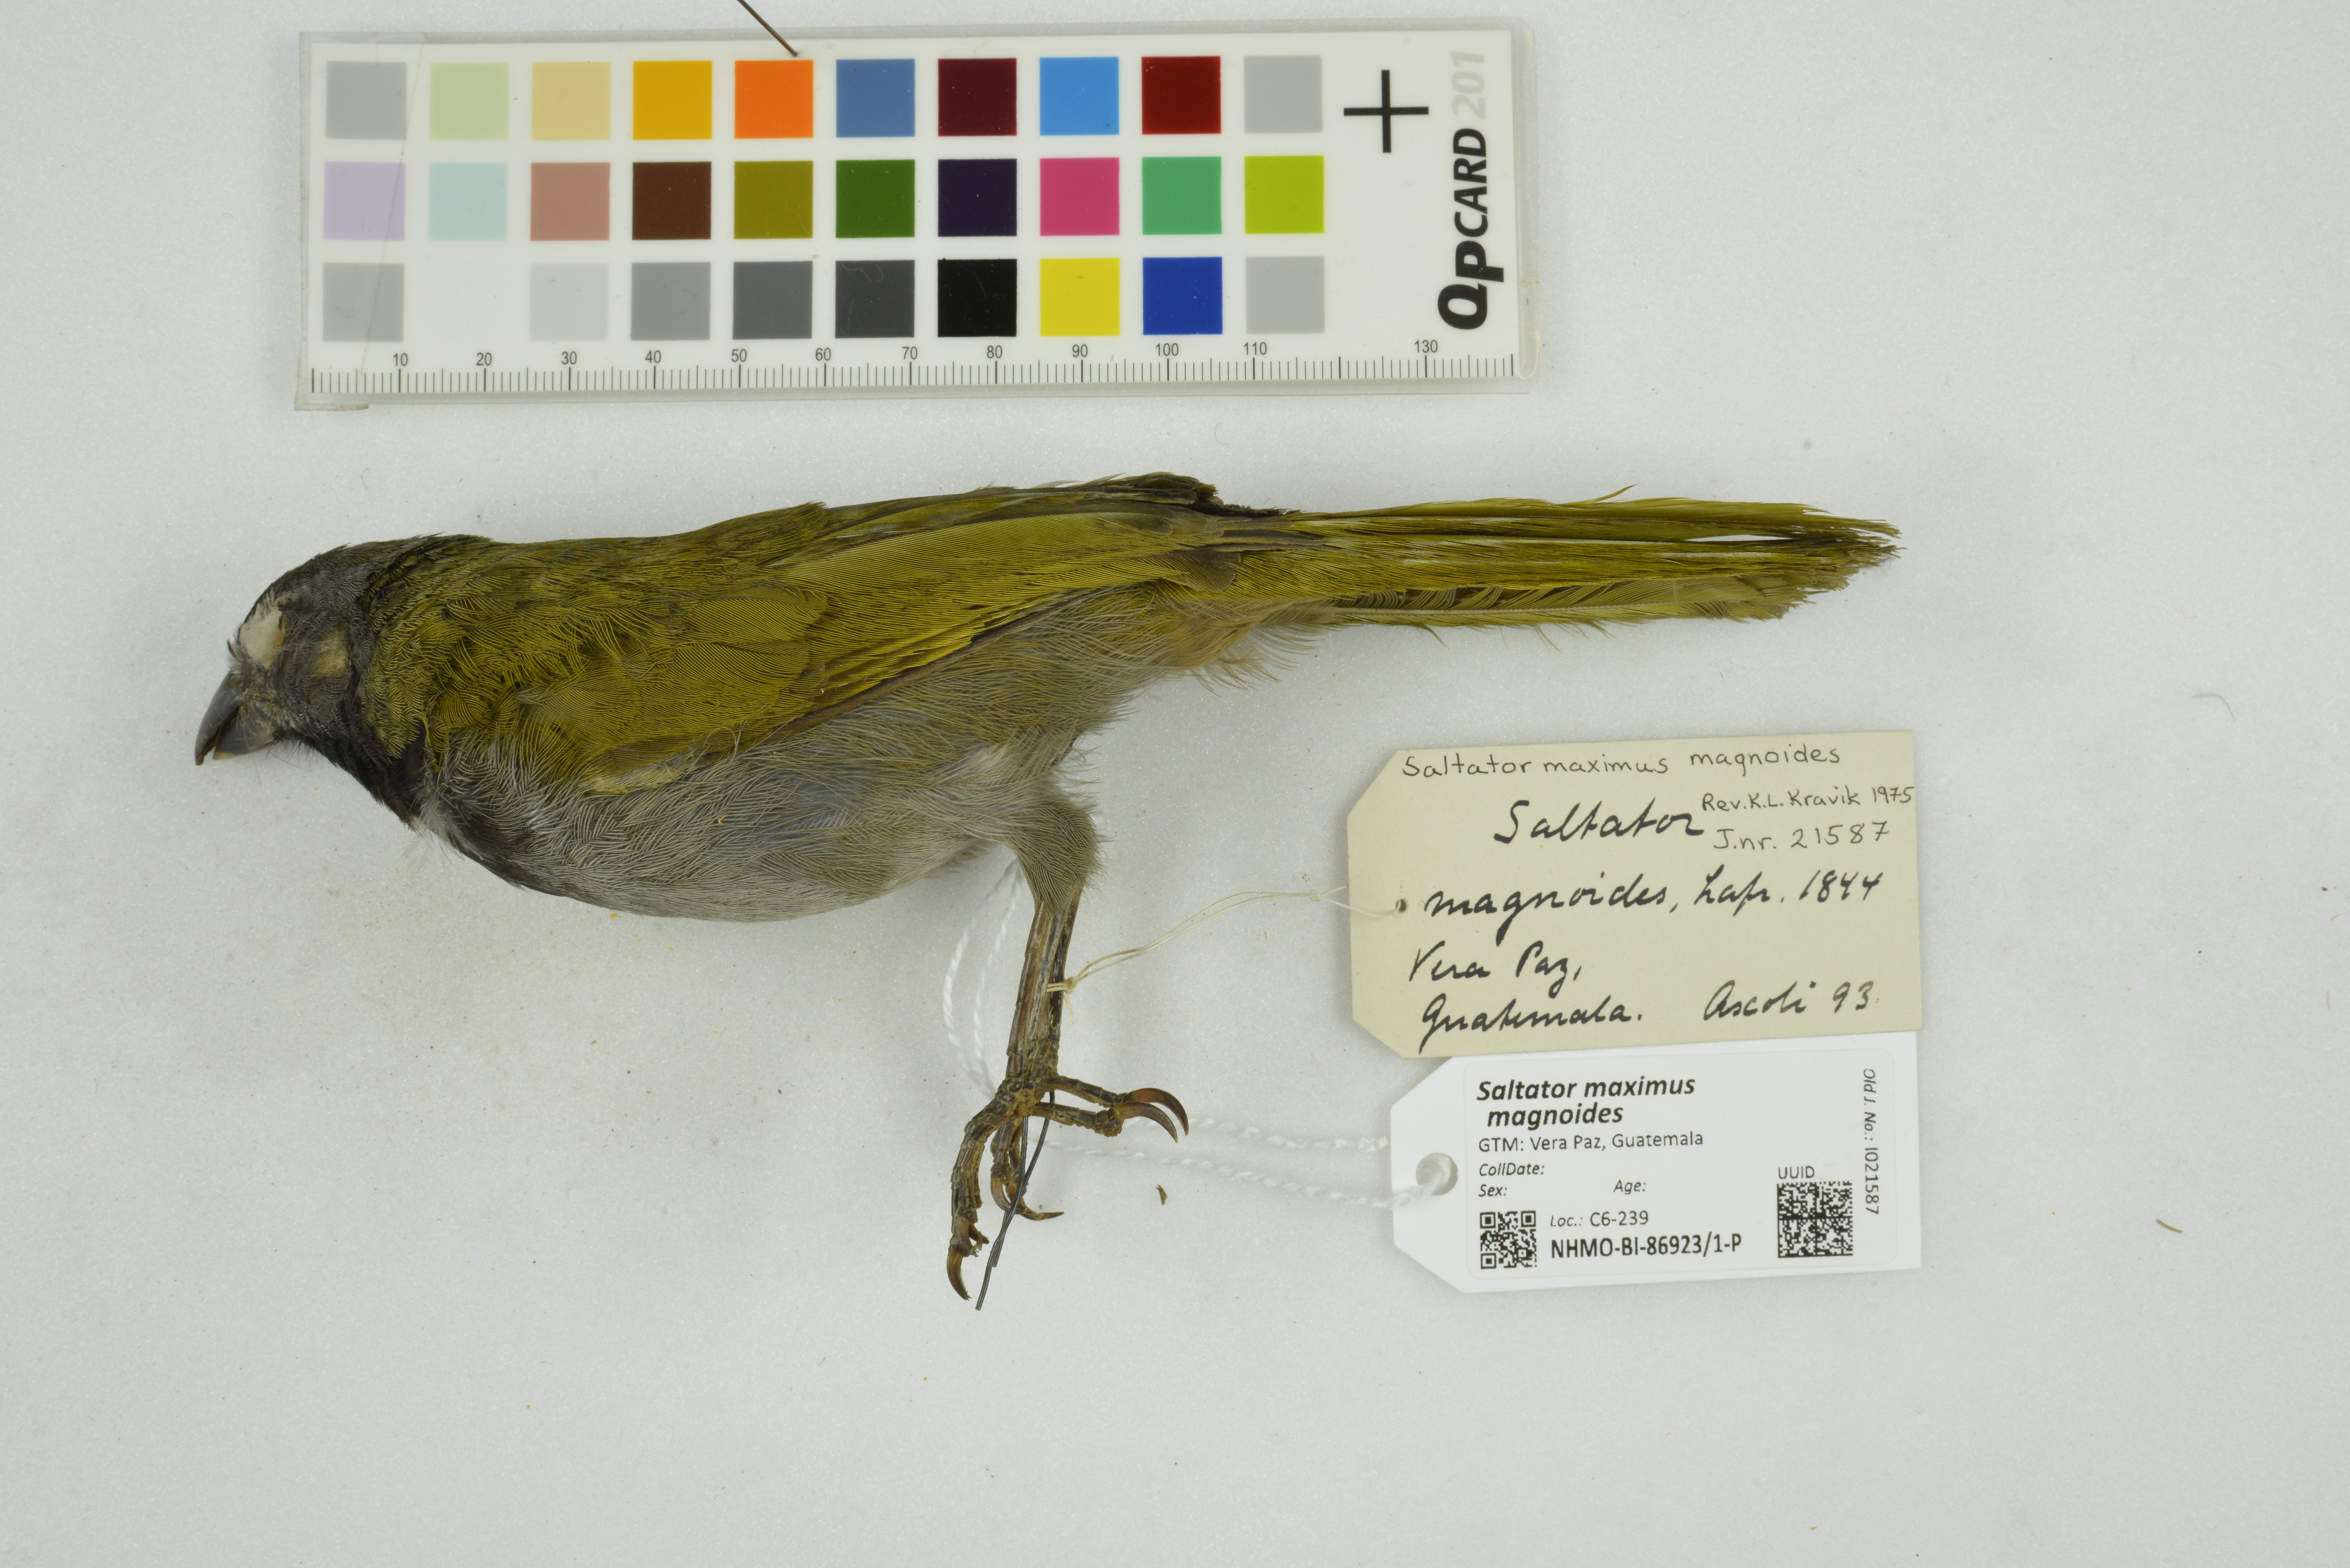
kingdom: Animalia
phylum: Chordata
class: Aves
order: Passeriformes
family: Thraupidae
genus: Saltator
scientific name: Saltator maximus
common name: Buff-throated saltator
